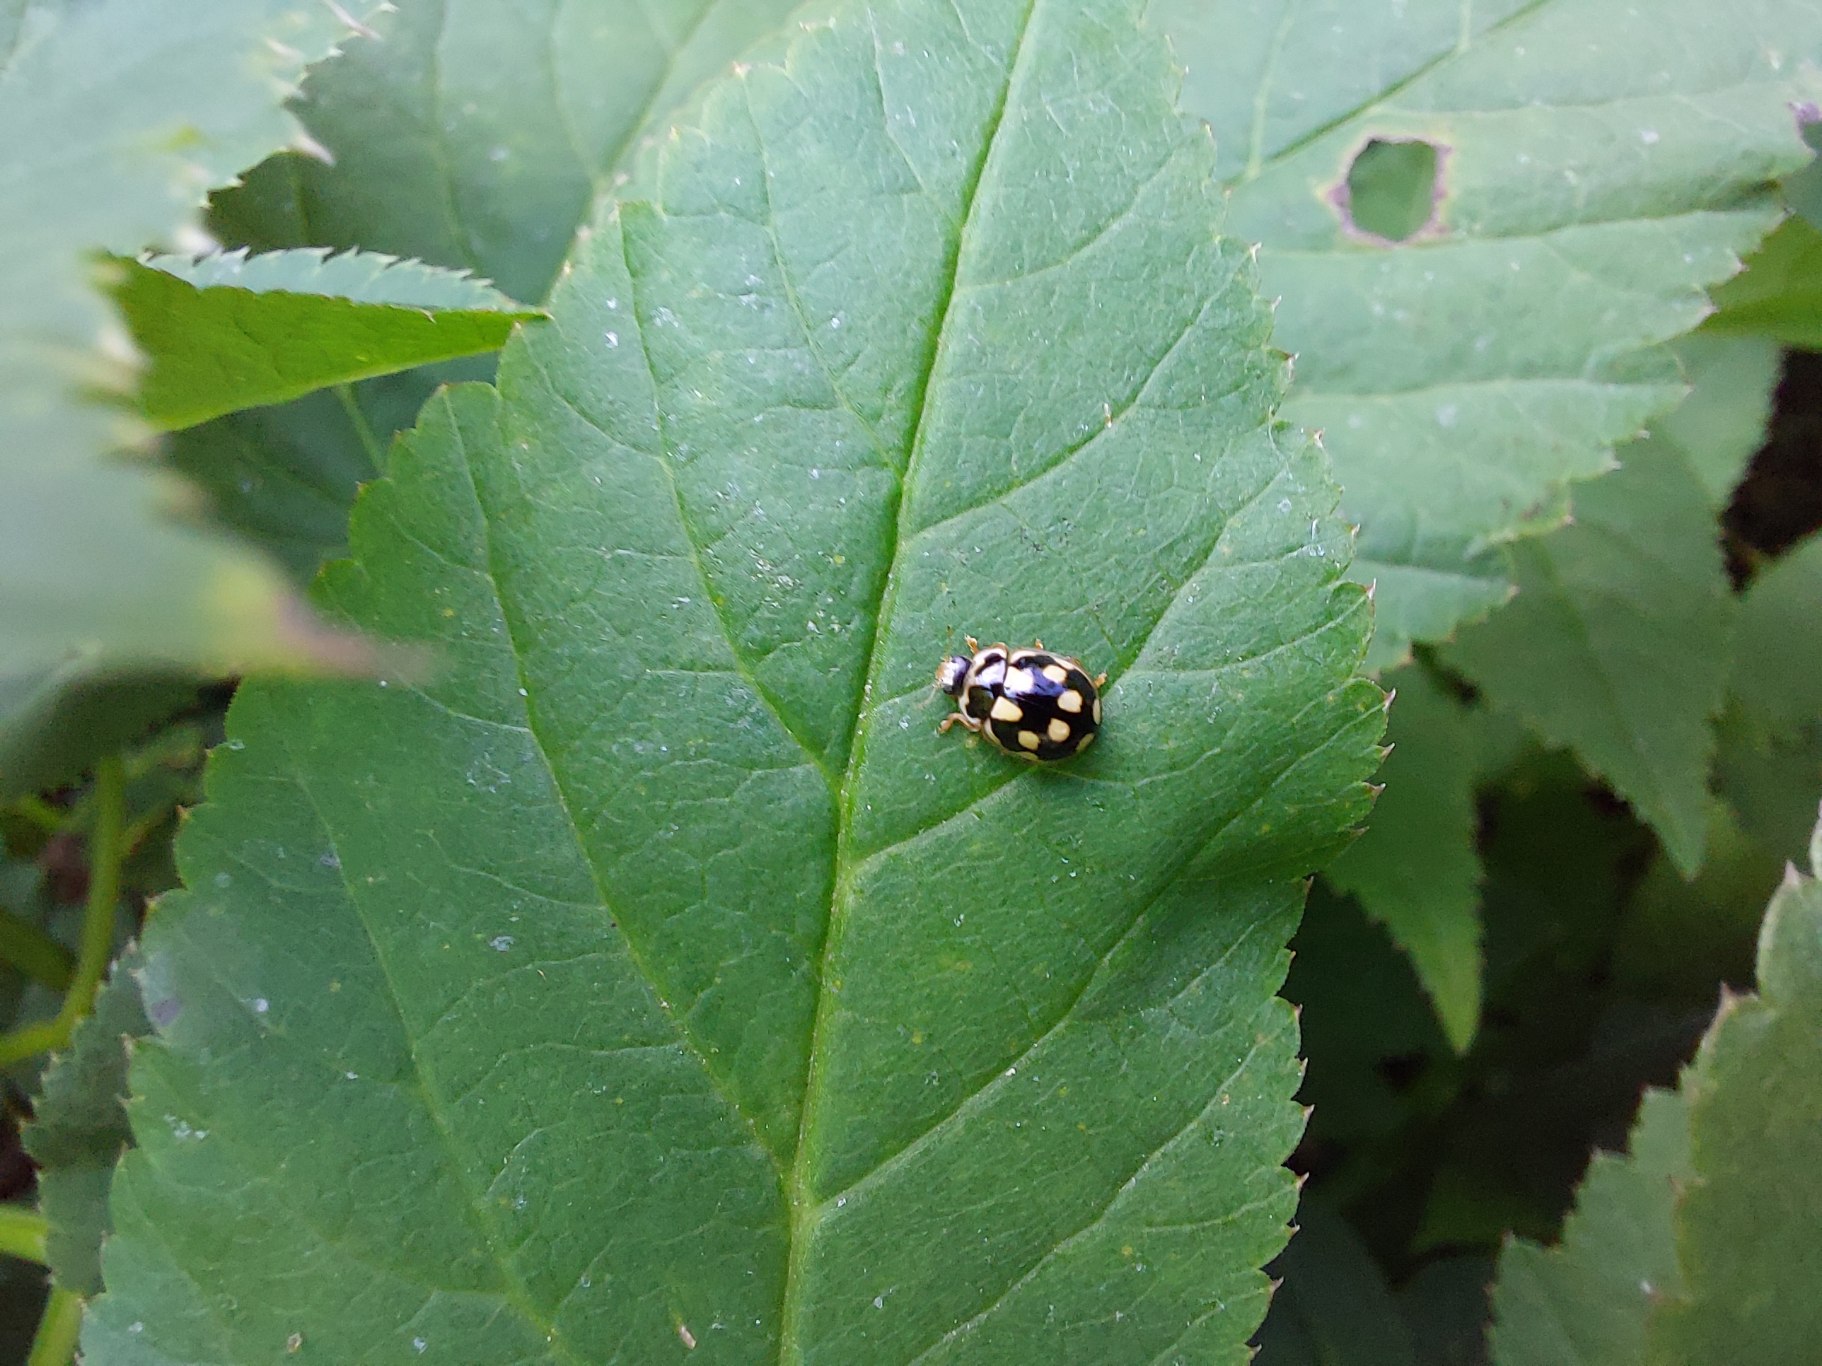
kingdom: Animalia
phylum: Arthropoda
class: Insecta
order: Coleoptera
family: Coccinellidae
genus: Propylaea
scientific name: Propylaea quatuordecimpunctata
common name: Skakbræt
